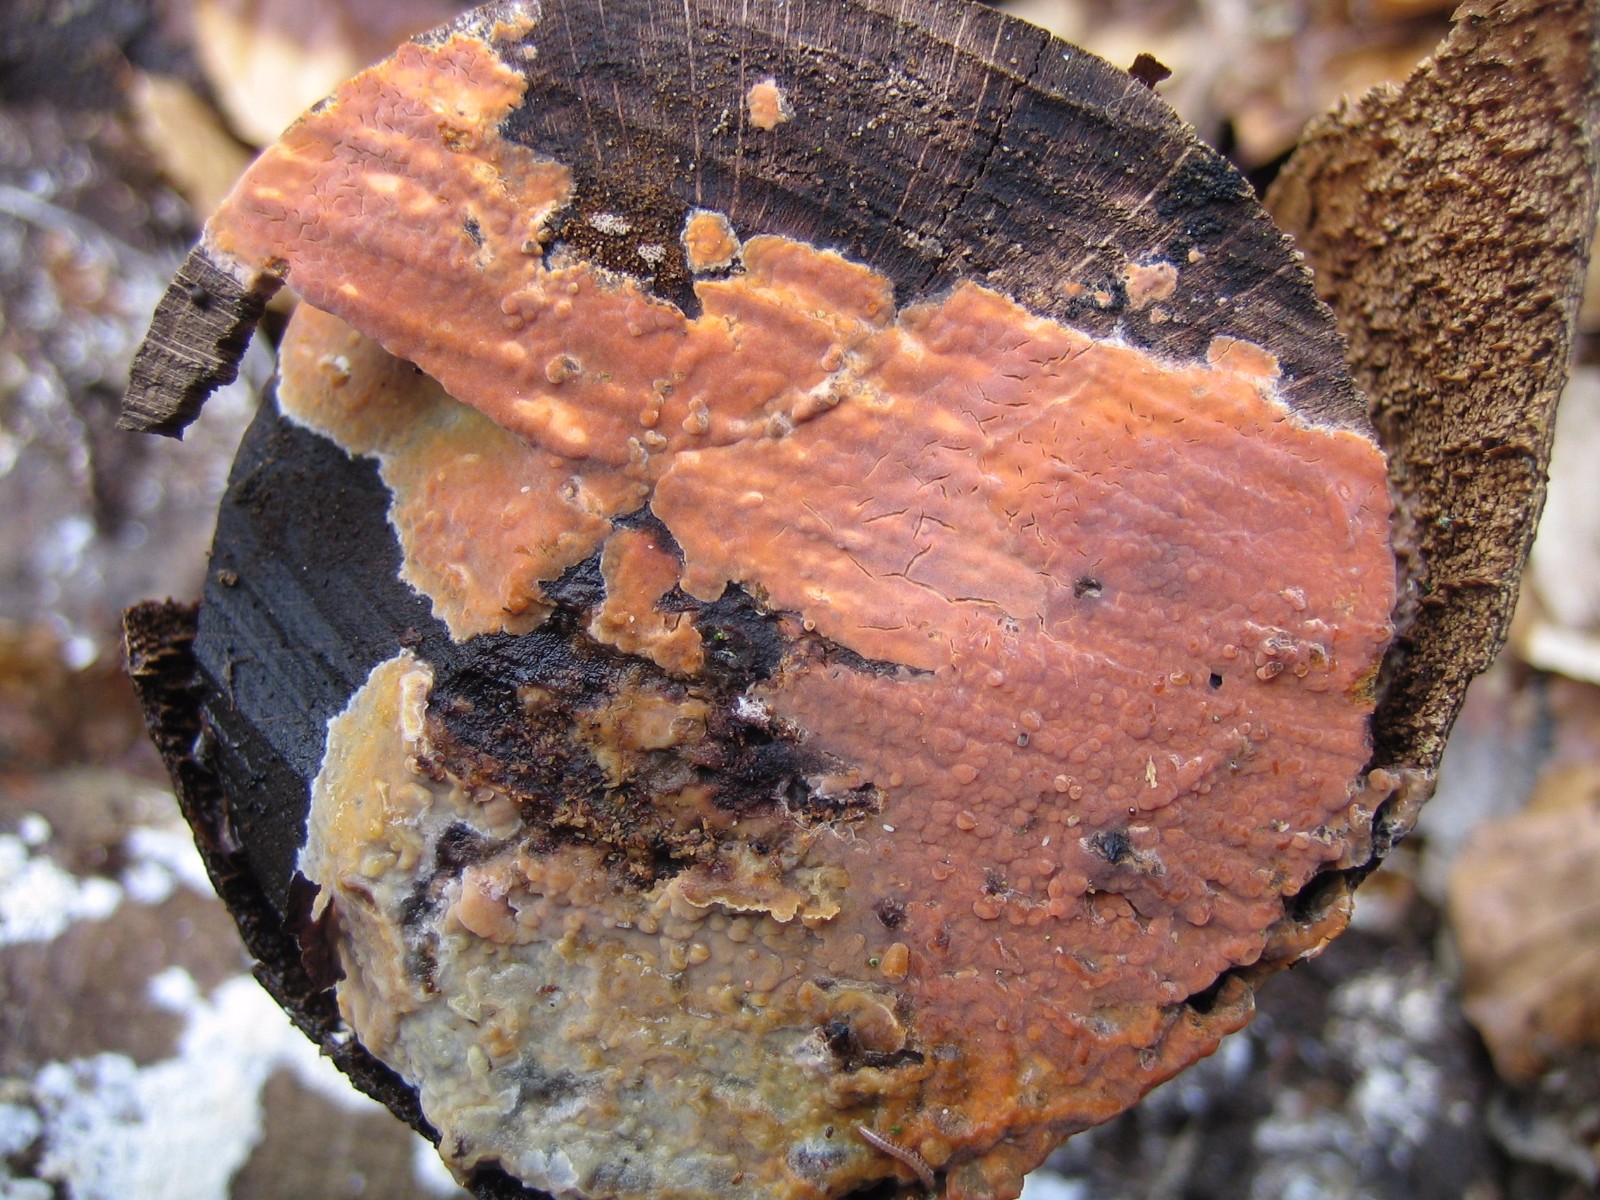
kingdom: Fungi
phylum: Basidiomycota
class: Agaricomycetes
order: Russulales
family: Peniophoraceae
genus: Peniophora
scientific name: Peniophora incarnata
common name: laksefarvet voksskind
